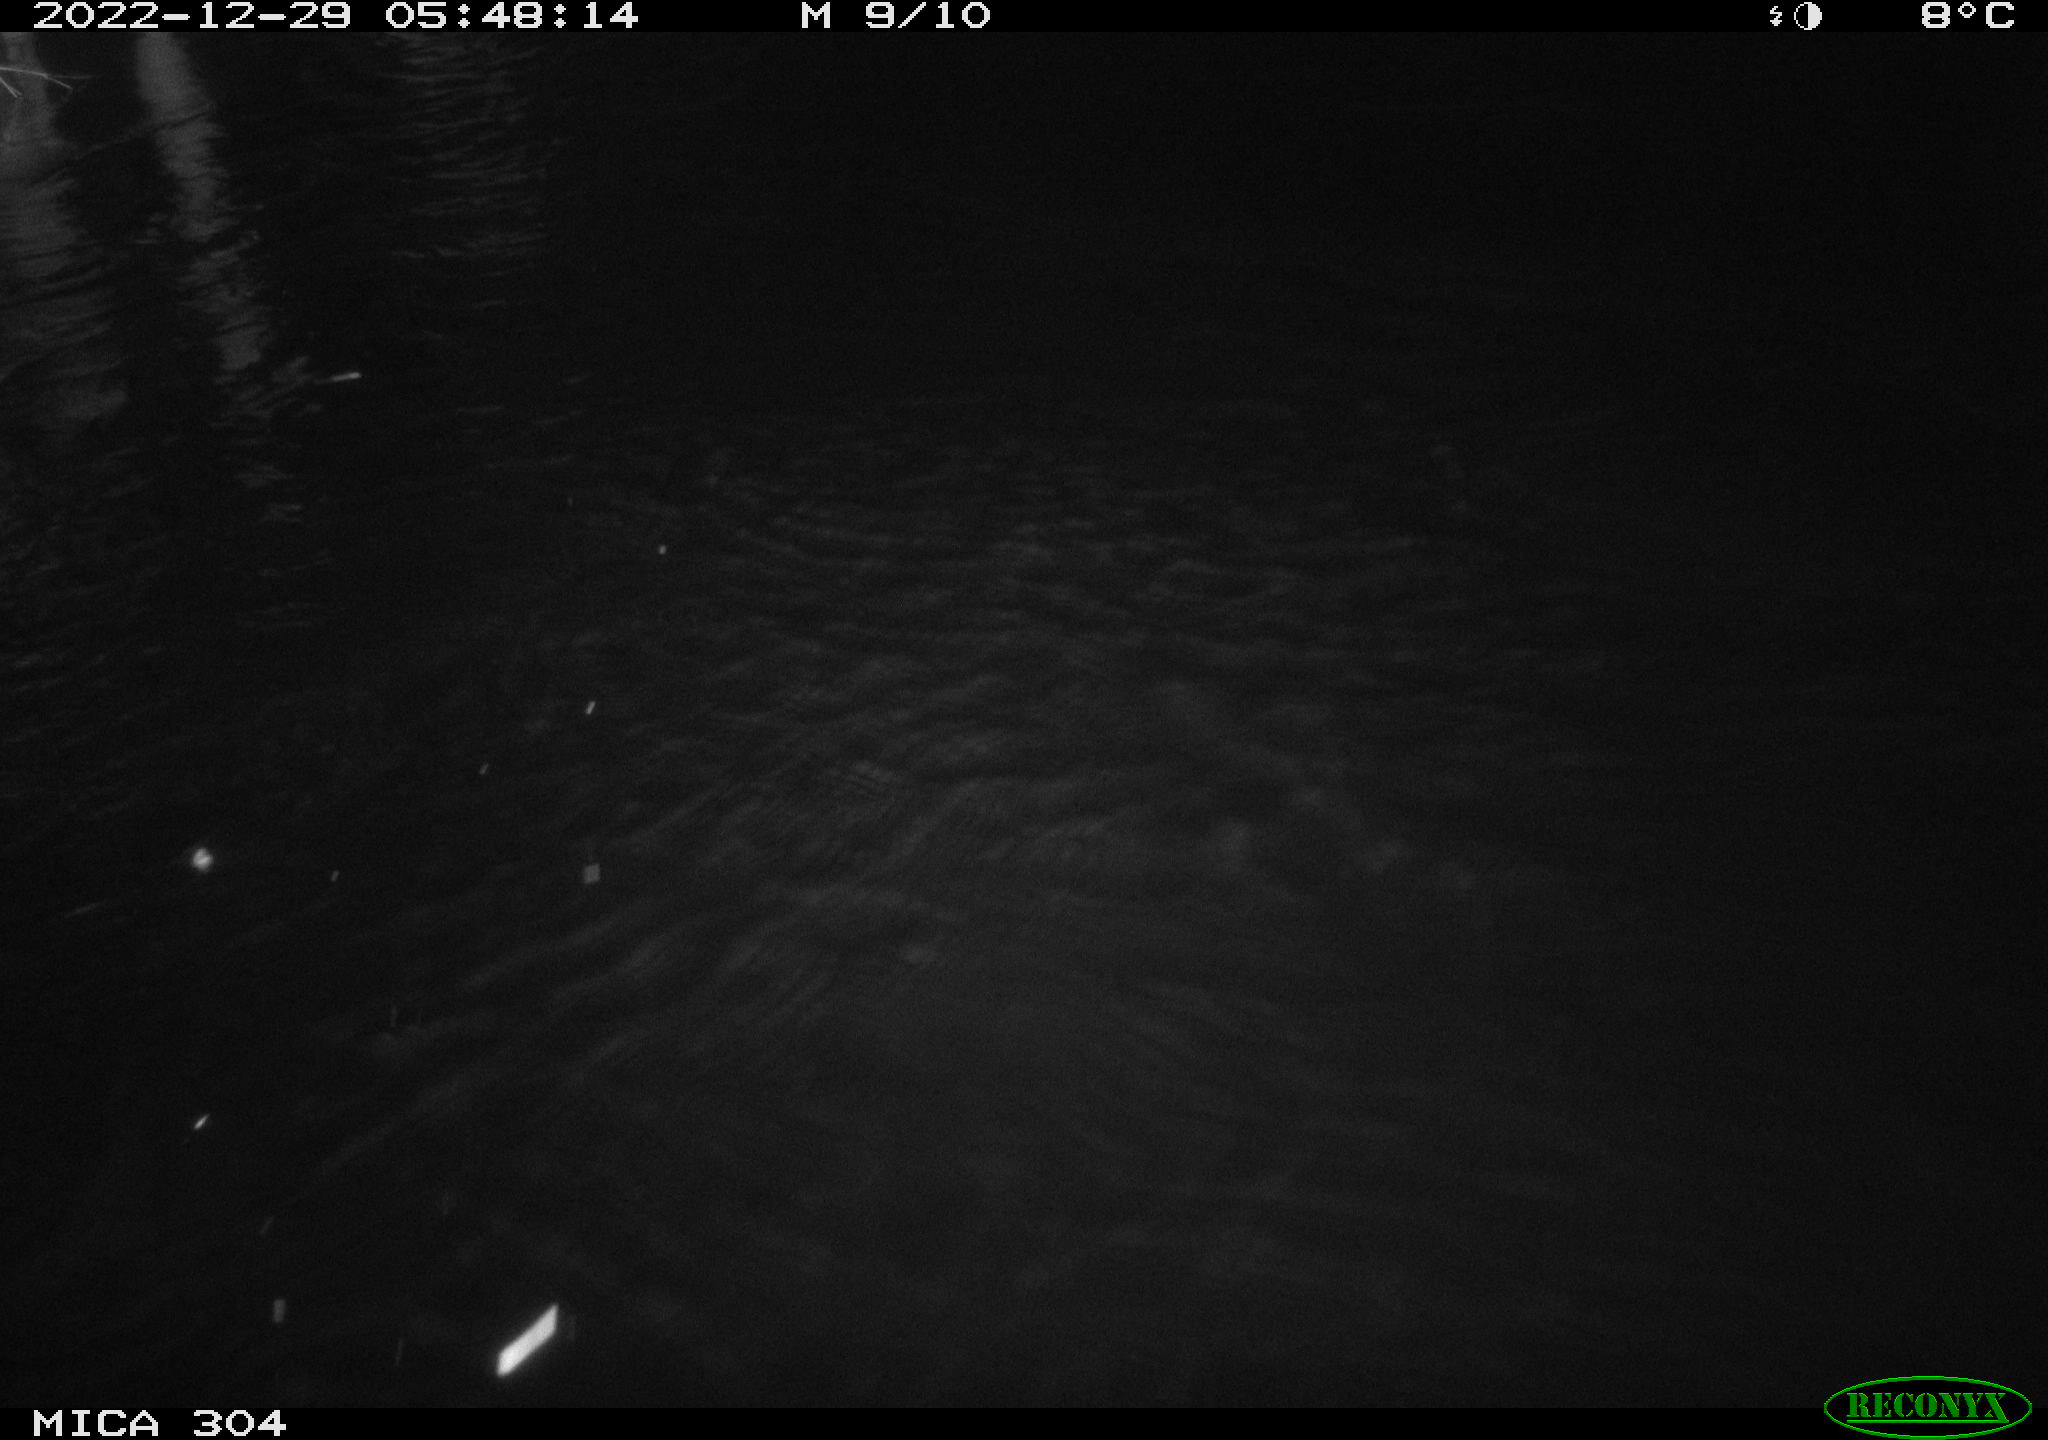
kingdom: Animalia
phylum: Chordata
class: Aves
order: Gruiformes
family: Rallidae
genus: Fulica
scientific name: Fulica atra
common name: Eurasian coot
